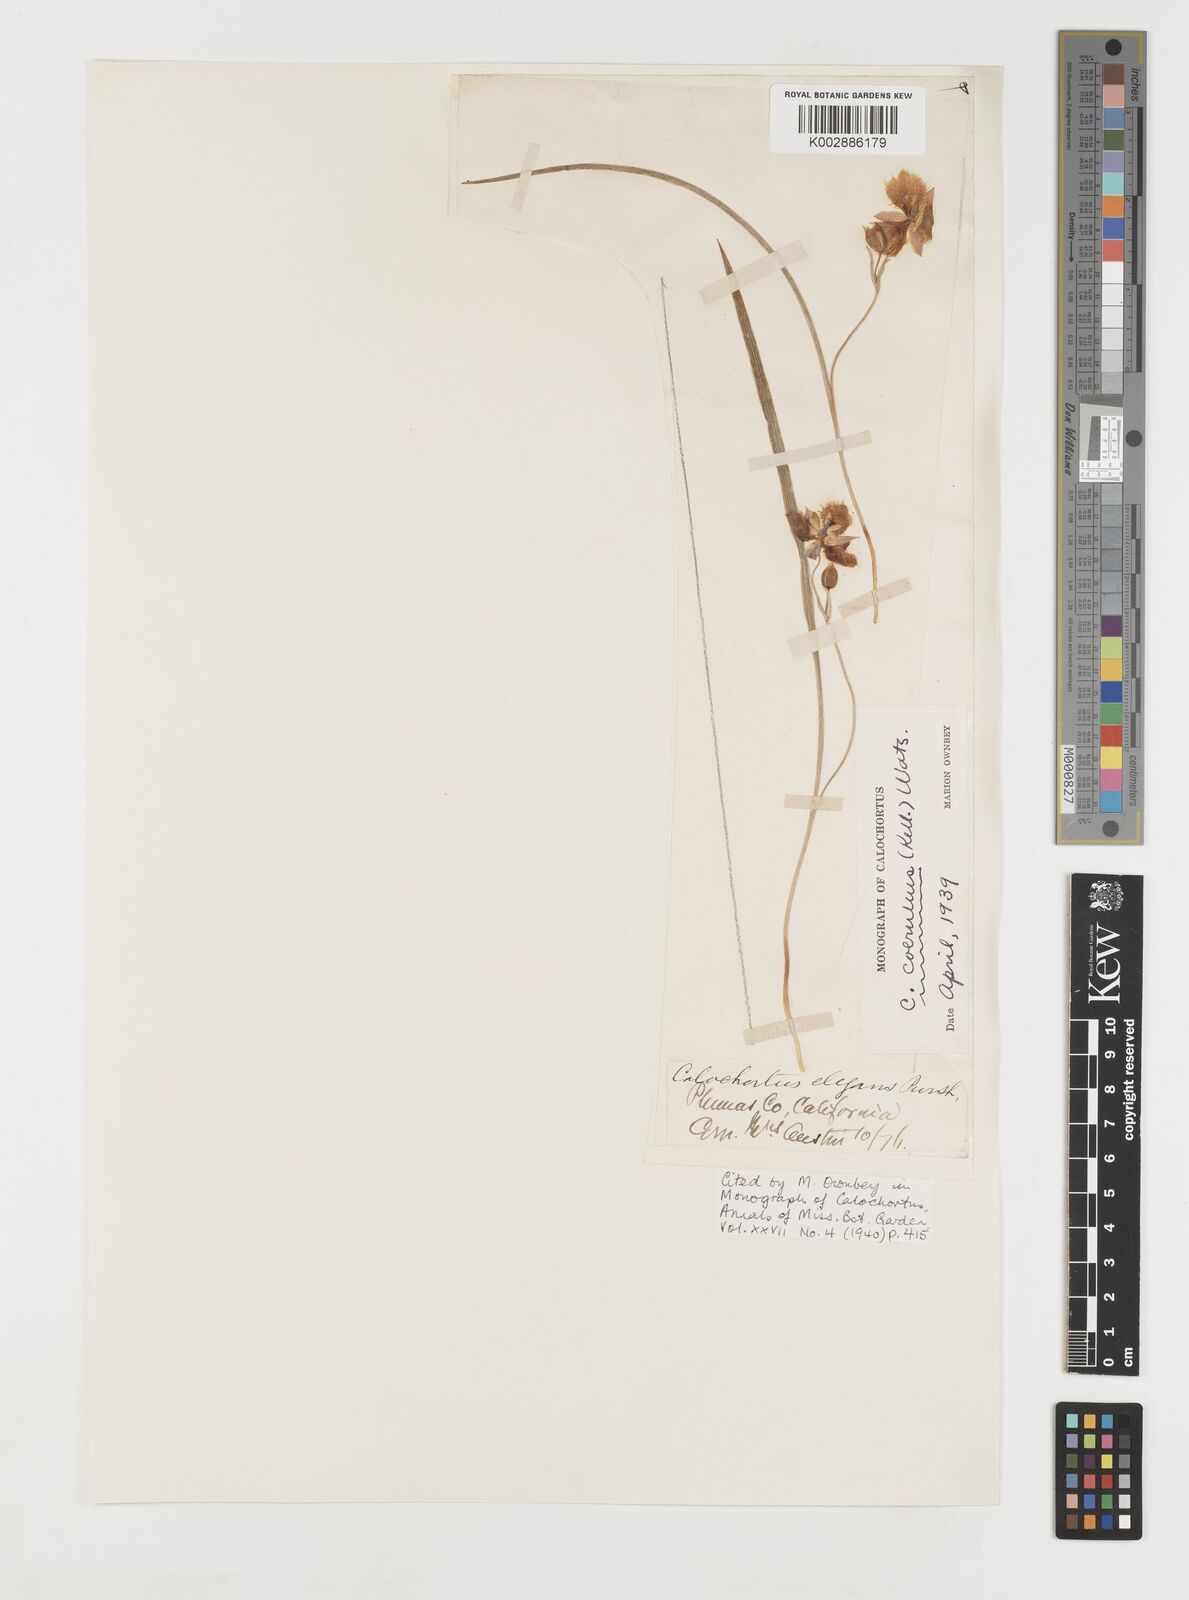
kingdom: Plantae
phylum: Tracheophyta
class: Liliopsida
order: Liliales
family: Liliaceae
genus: Calochortus
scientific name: Calochortus coeruleus
